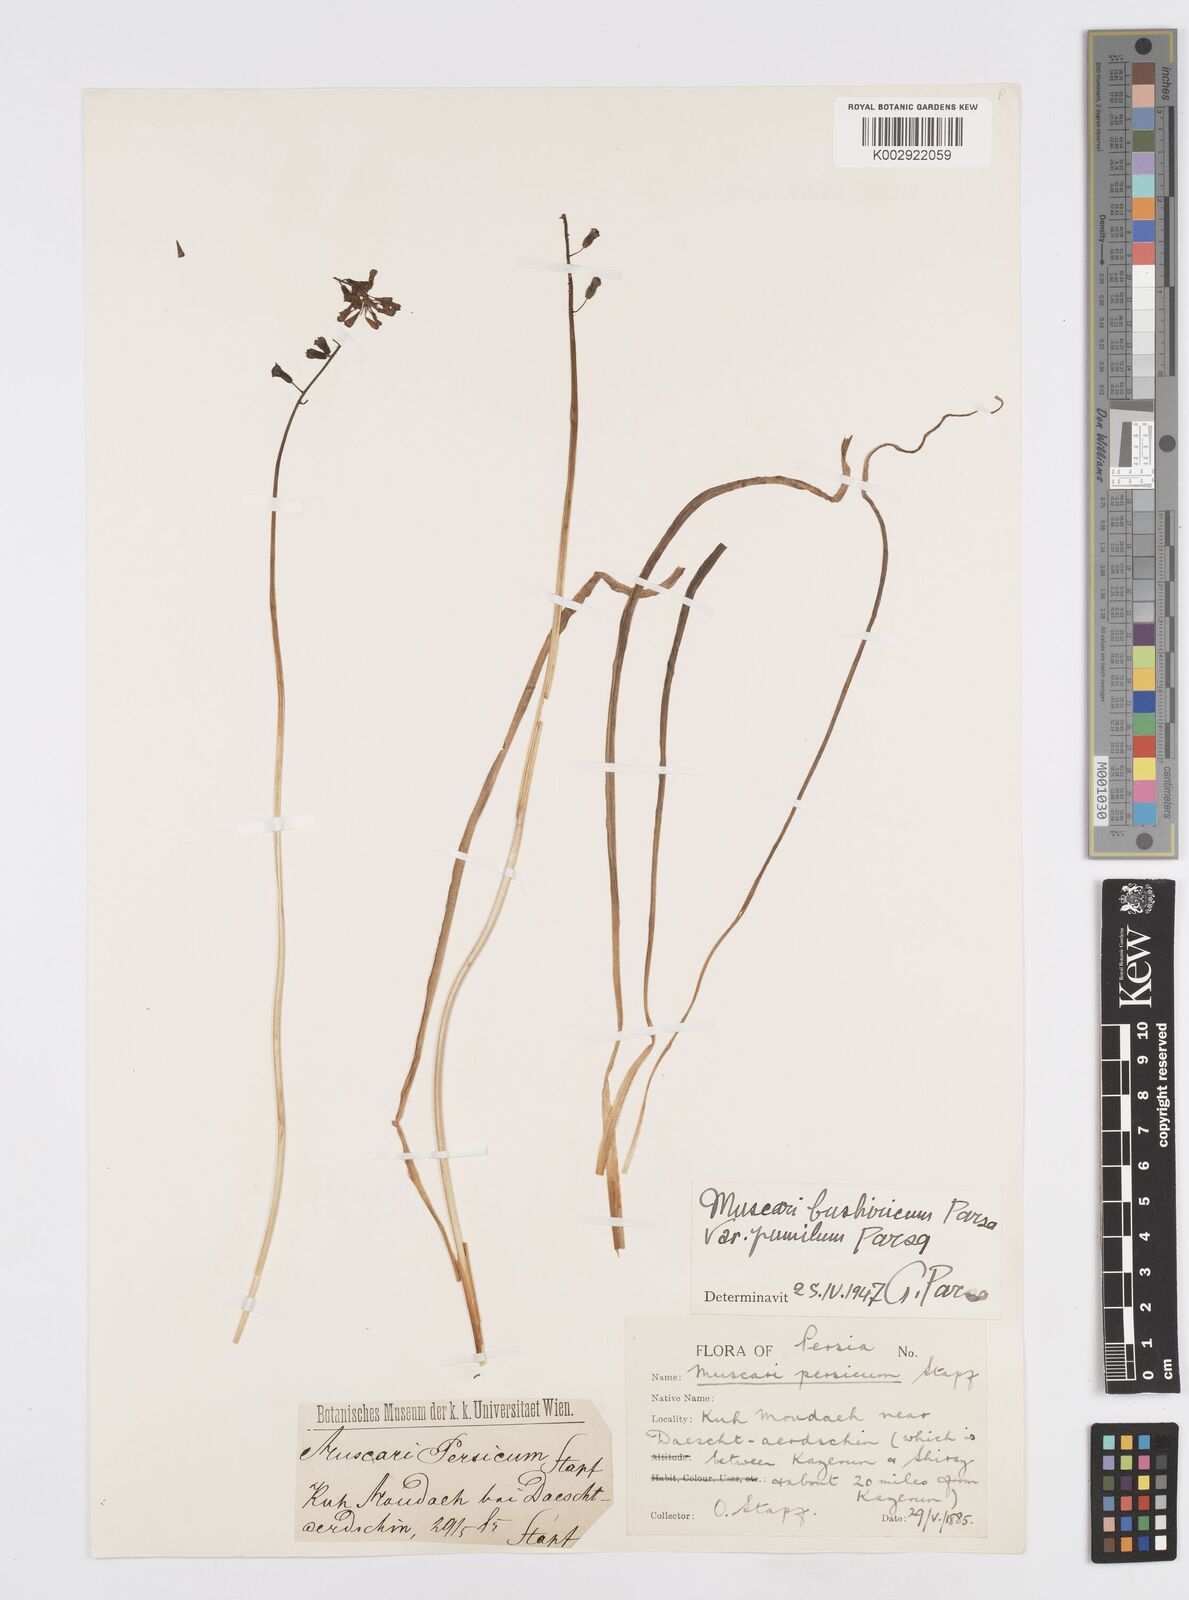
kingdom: Animalia
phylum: Mollusca
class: Cephalopoda
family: Neocomitidae
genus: Leopoldia
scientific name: Leopoldia
